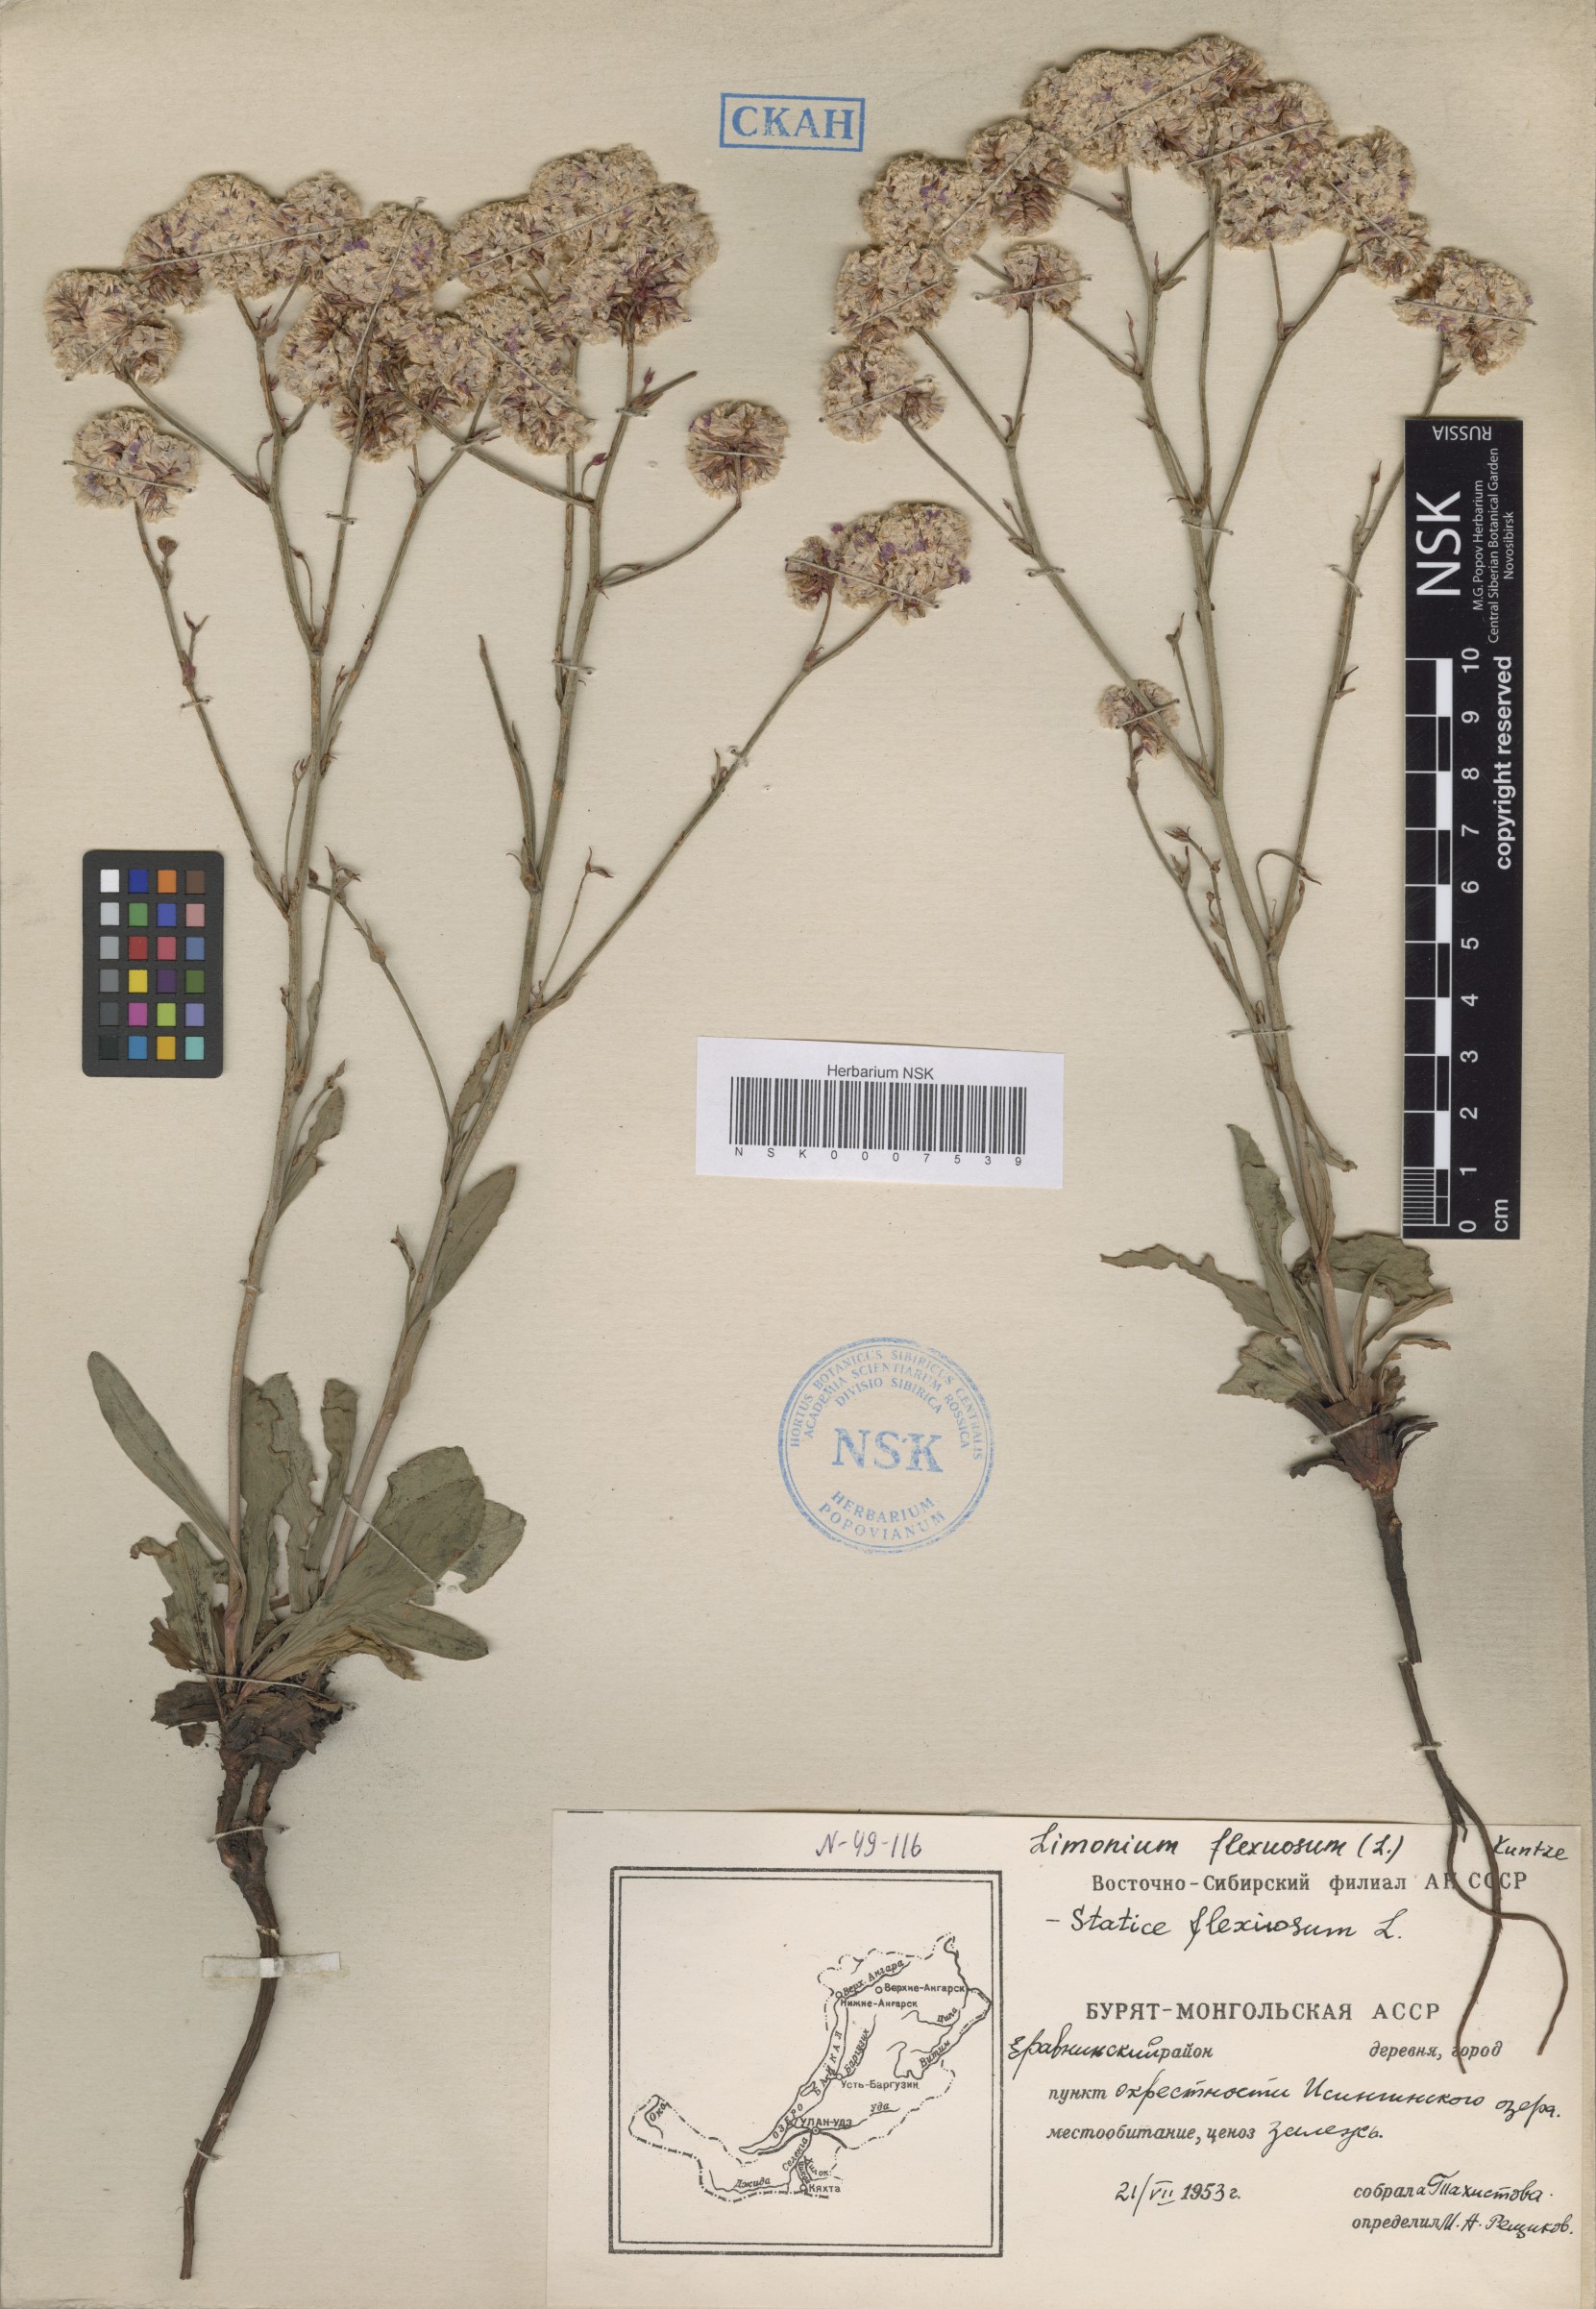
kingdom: Plantae
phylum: Tracheophyta
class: Magnoliopsida
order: Caryophyllales
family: Plumbaginaceae
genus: Limonium
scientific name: Limonium flexuosum
